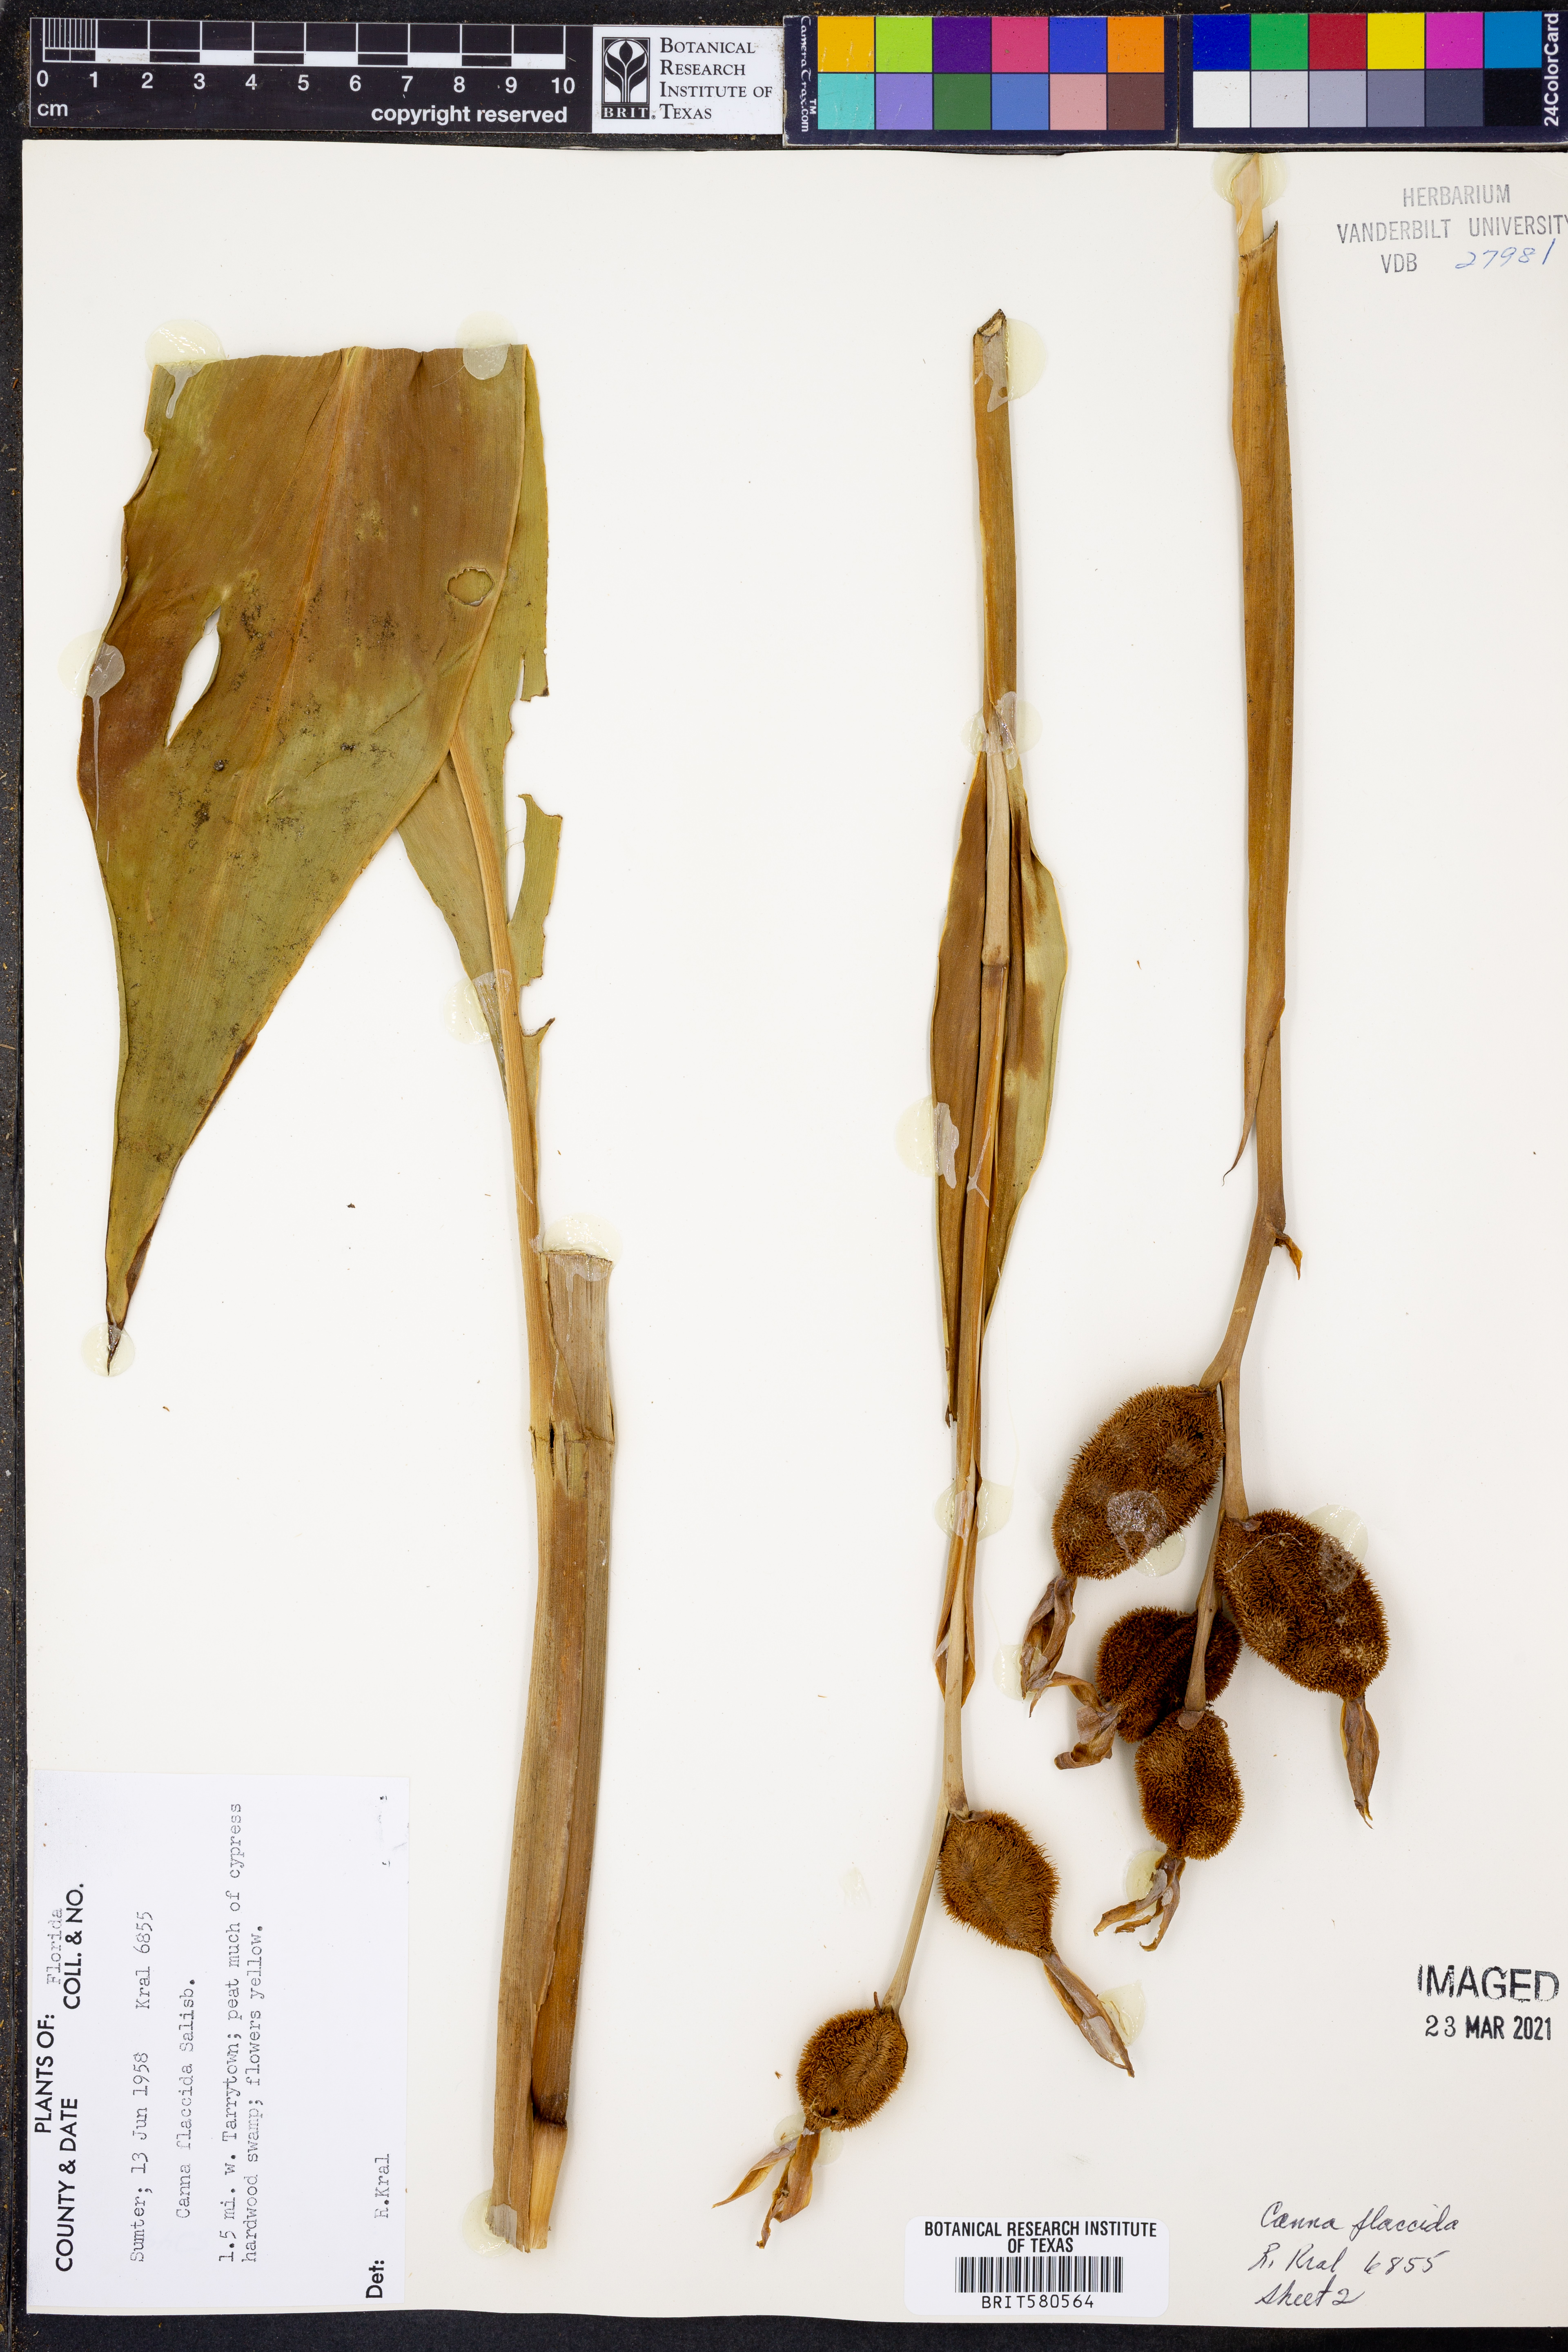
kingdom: Plantae
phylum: Tracheophyta
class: Liliopsida
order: Zingiberales
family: Cannaceae
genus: Canna
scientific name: Canna flaccida
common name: Bandana-of-the-everglades
